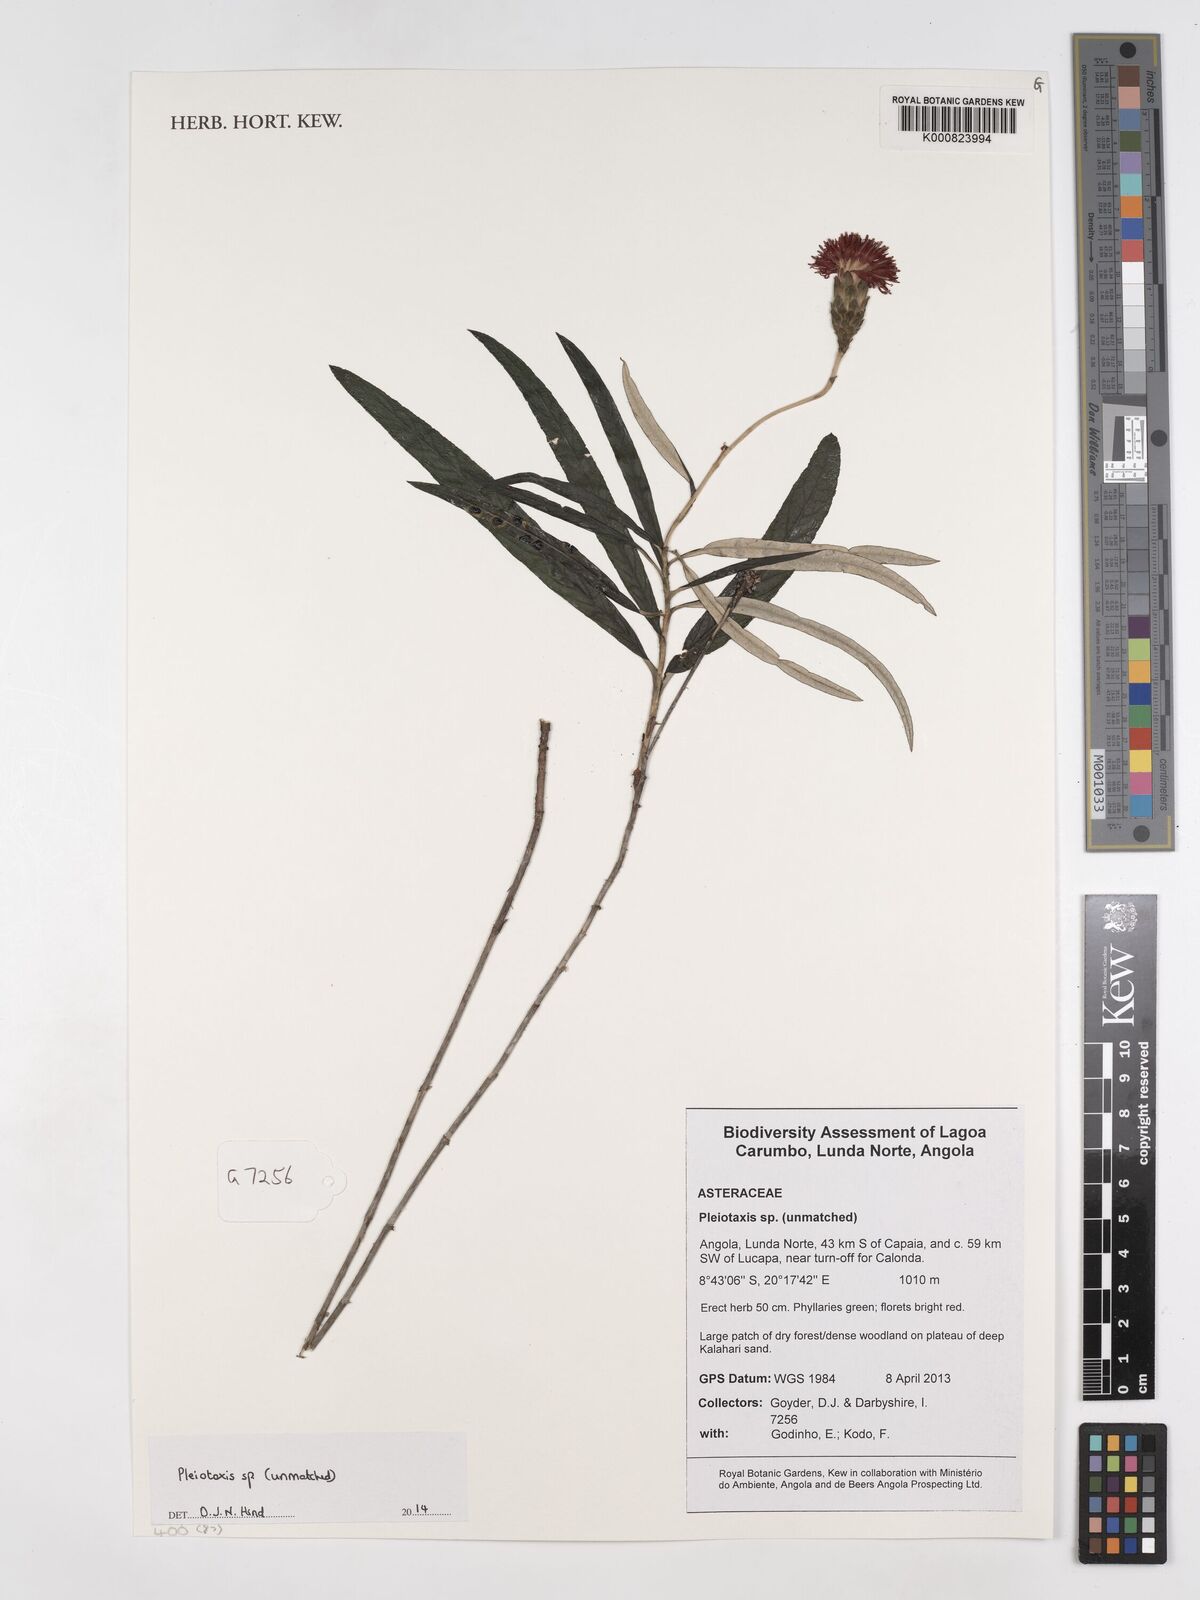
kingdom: Plantae
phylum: Tracheophyta
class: Magnoliopsida
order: Asterales
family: Asteraceae
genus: Pleiotaxis
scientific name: Pleiotaxis
